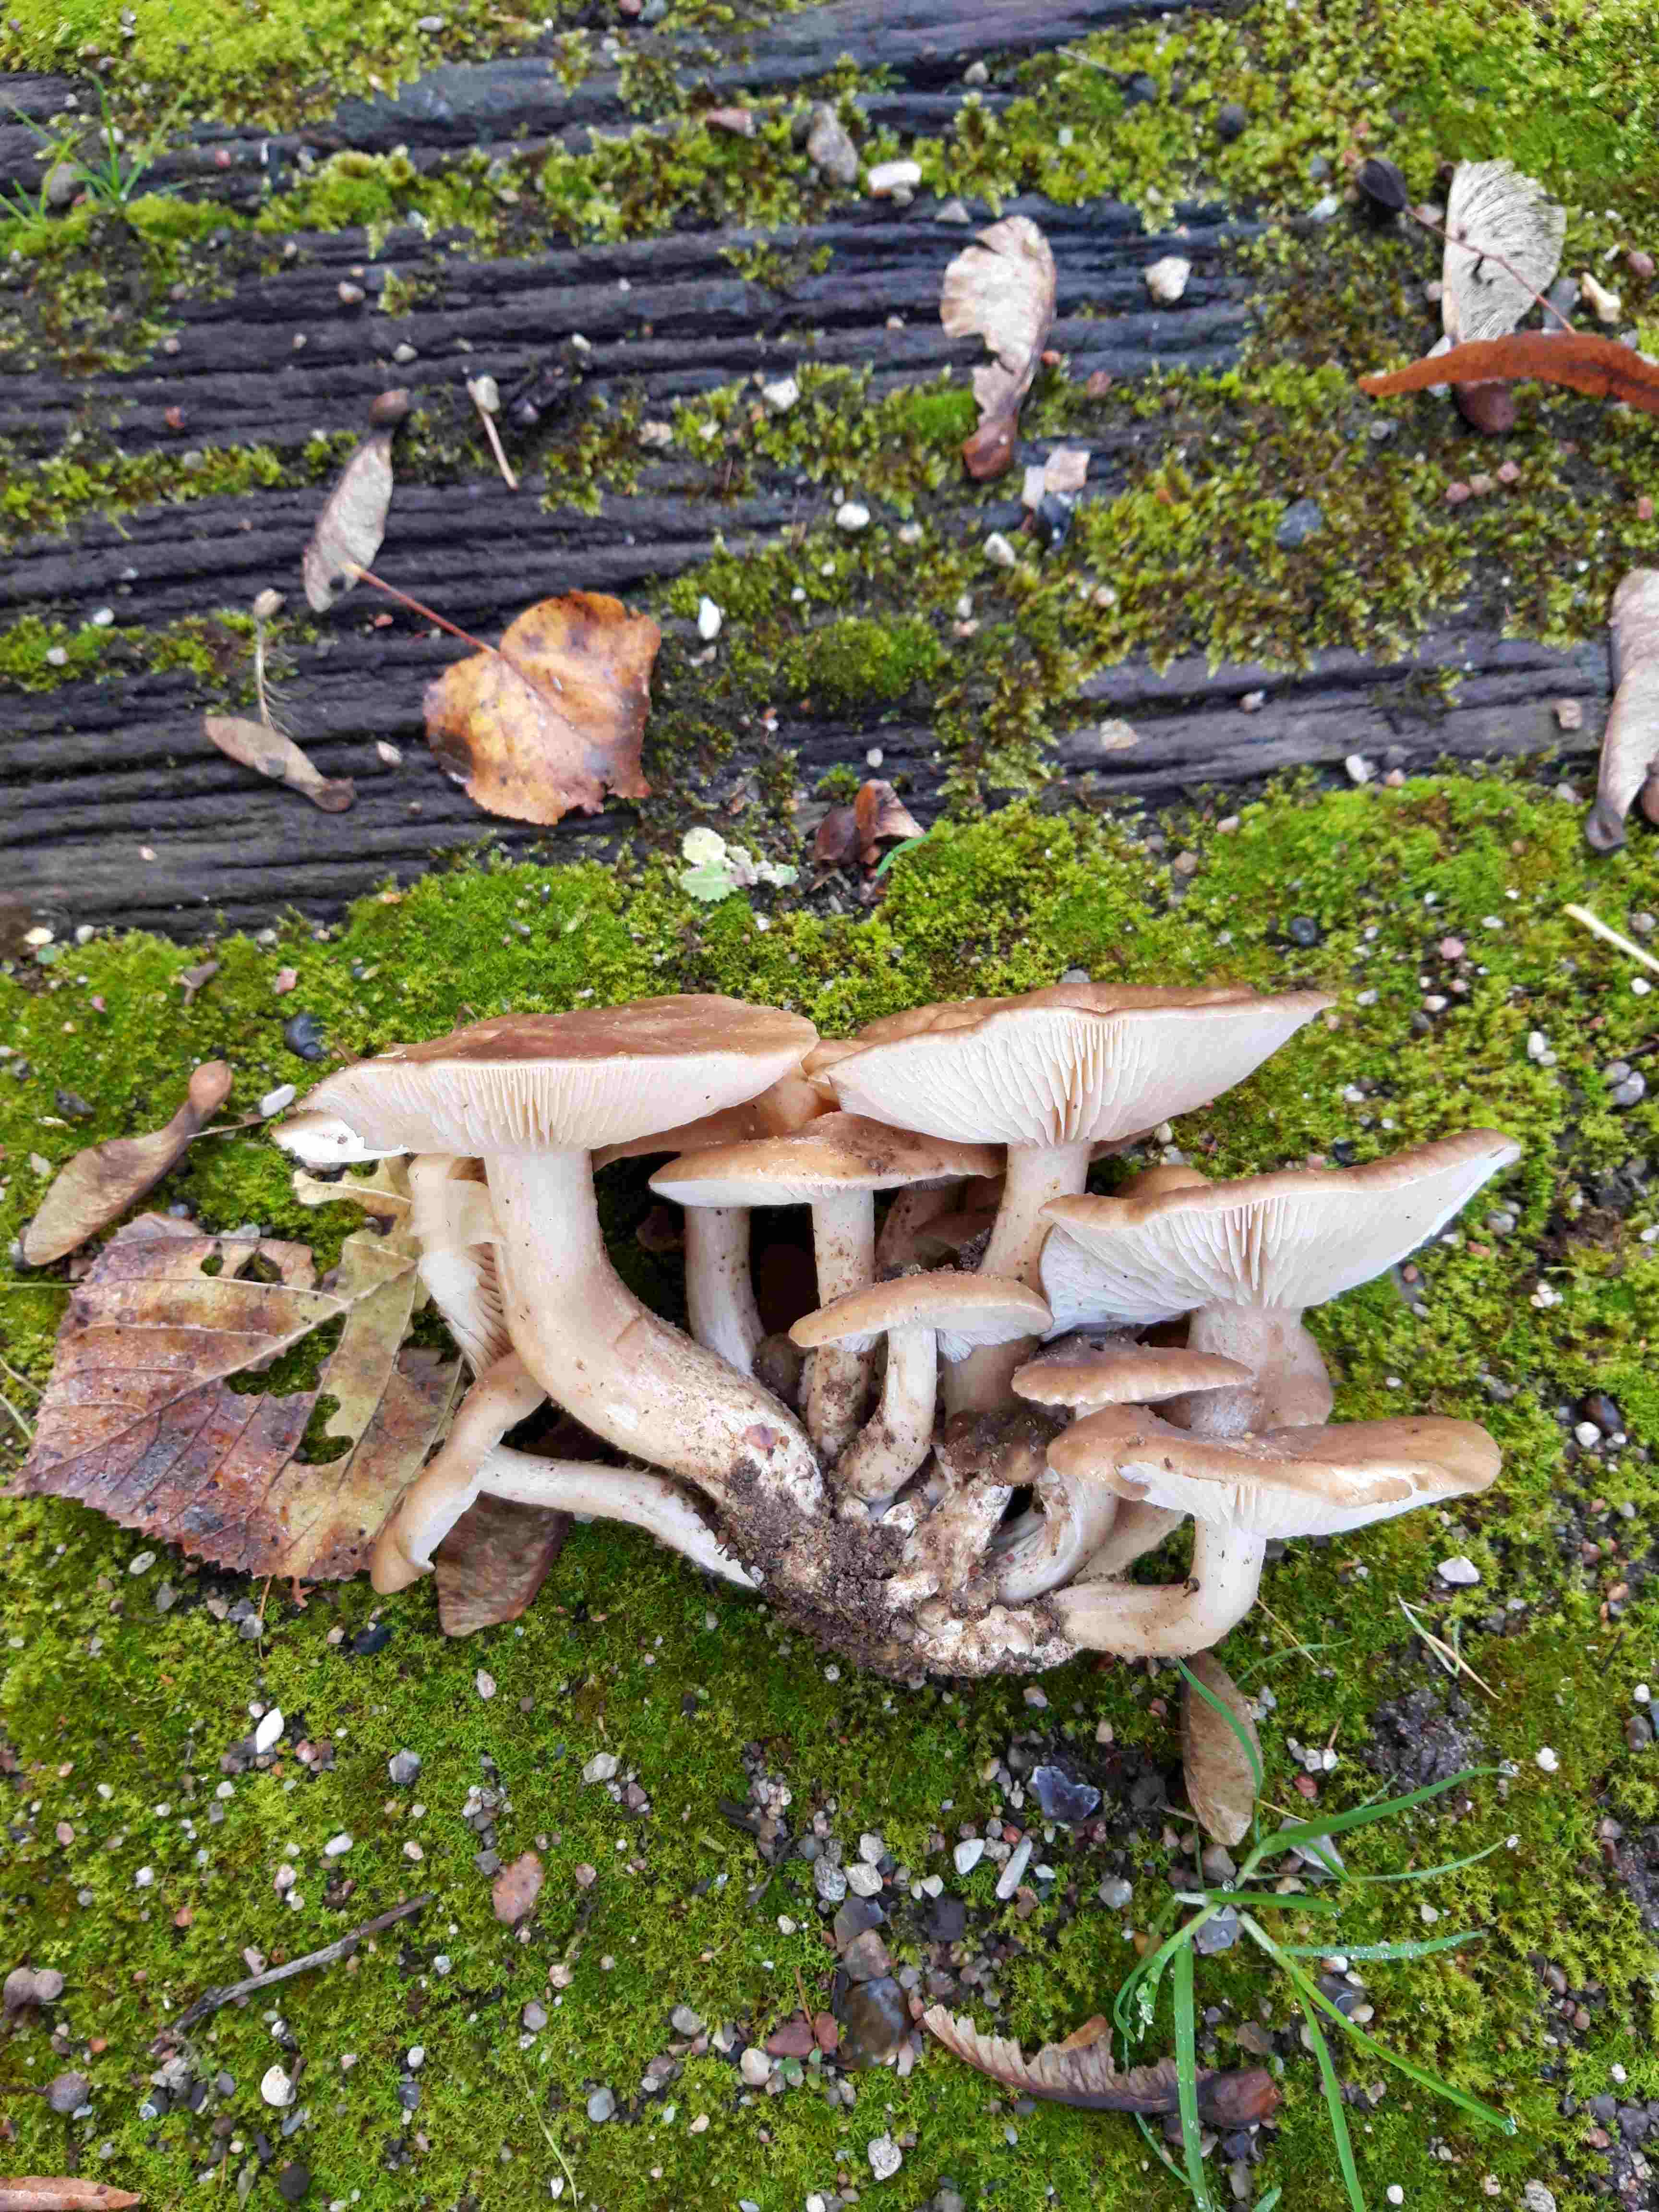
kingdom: Fungi
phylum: Basidiomycota
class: Agaricomycetes
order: Agaricales
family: Lyophyllaceae
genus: Lyophyllum
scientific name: Lyophyllum
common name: gråblad
